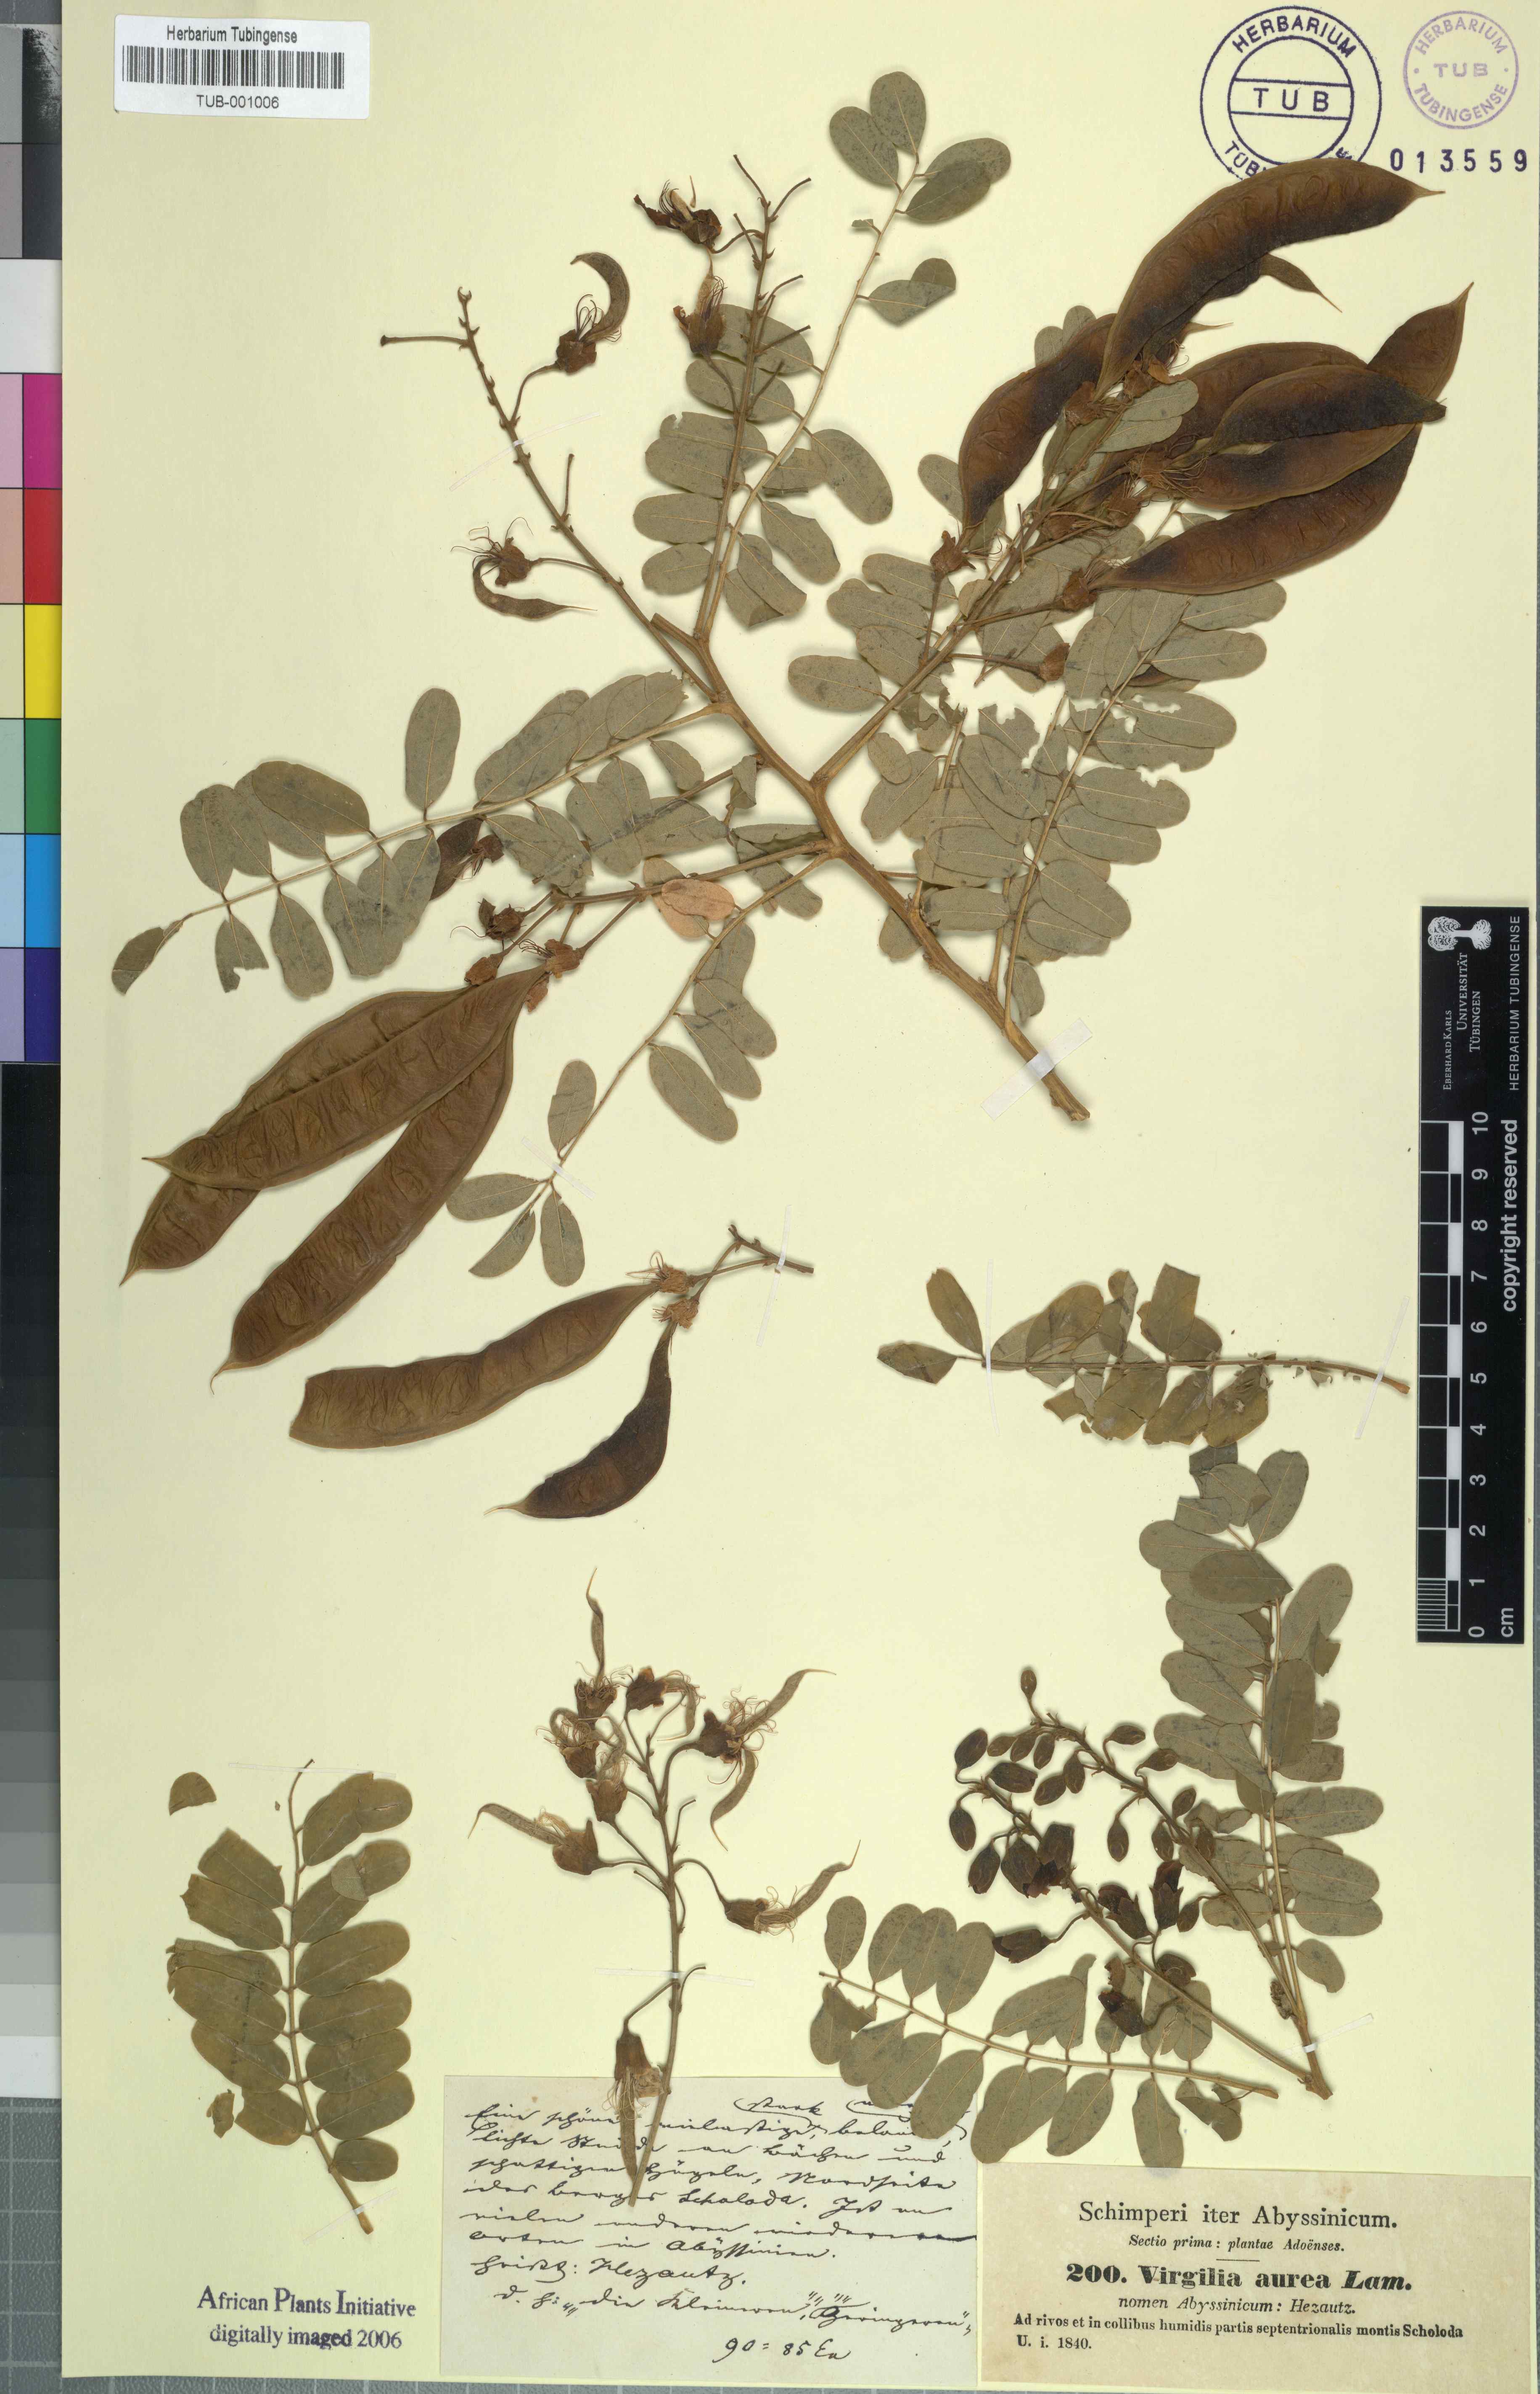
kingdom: Plantae
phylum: Tracheophyta
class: Magnoliopsida
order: Fabales
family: Fabaceae
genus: Calpurnia
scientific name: Calpurnia aurea
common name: Wild laburnum
